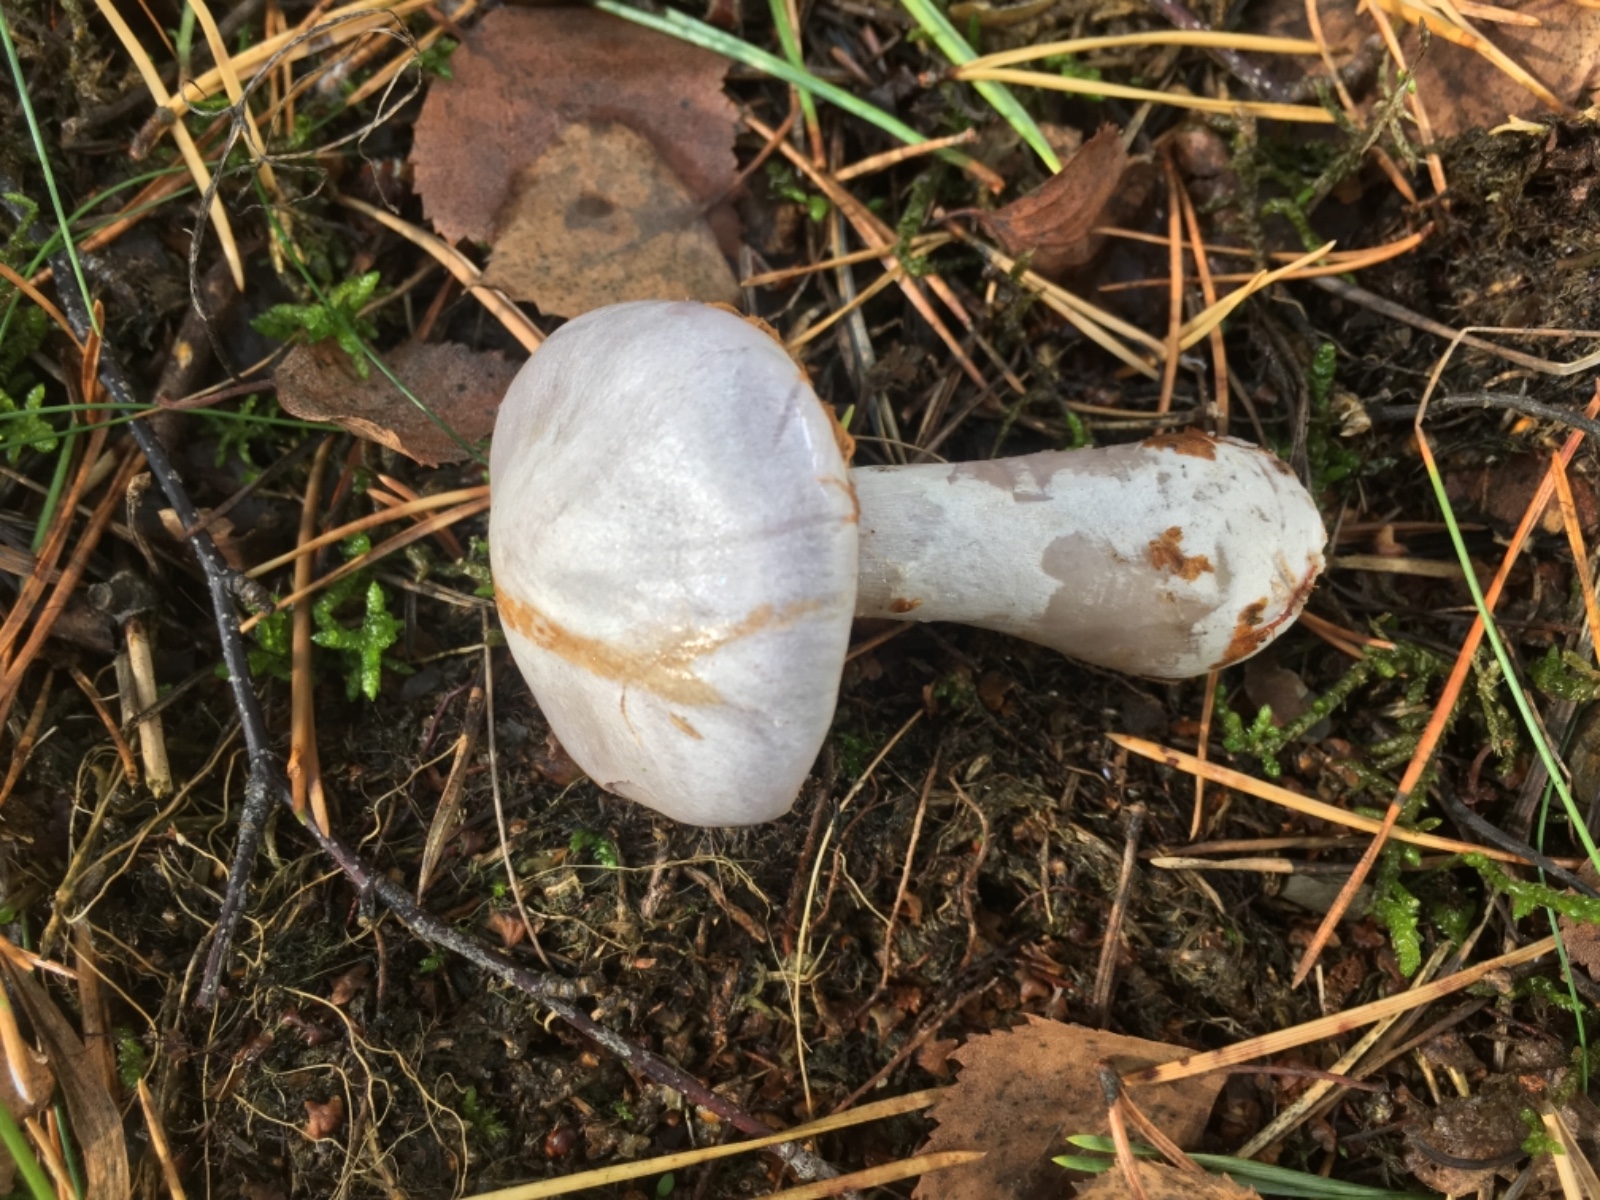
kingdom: Fungi
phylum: Basidiomycota
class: Agaricomycetes
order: Agaricales
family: Cortinariaceae
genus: Cortinarius
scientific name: Cortinarius alboviolaceus
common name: lysviolet slørhat
